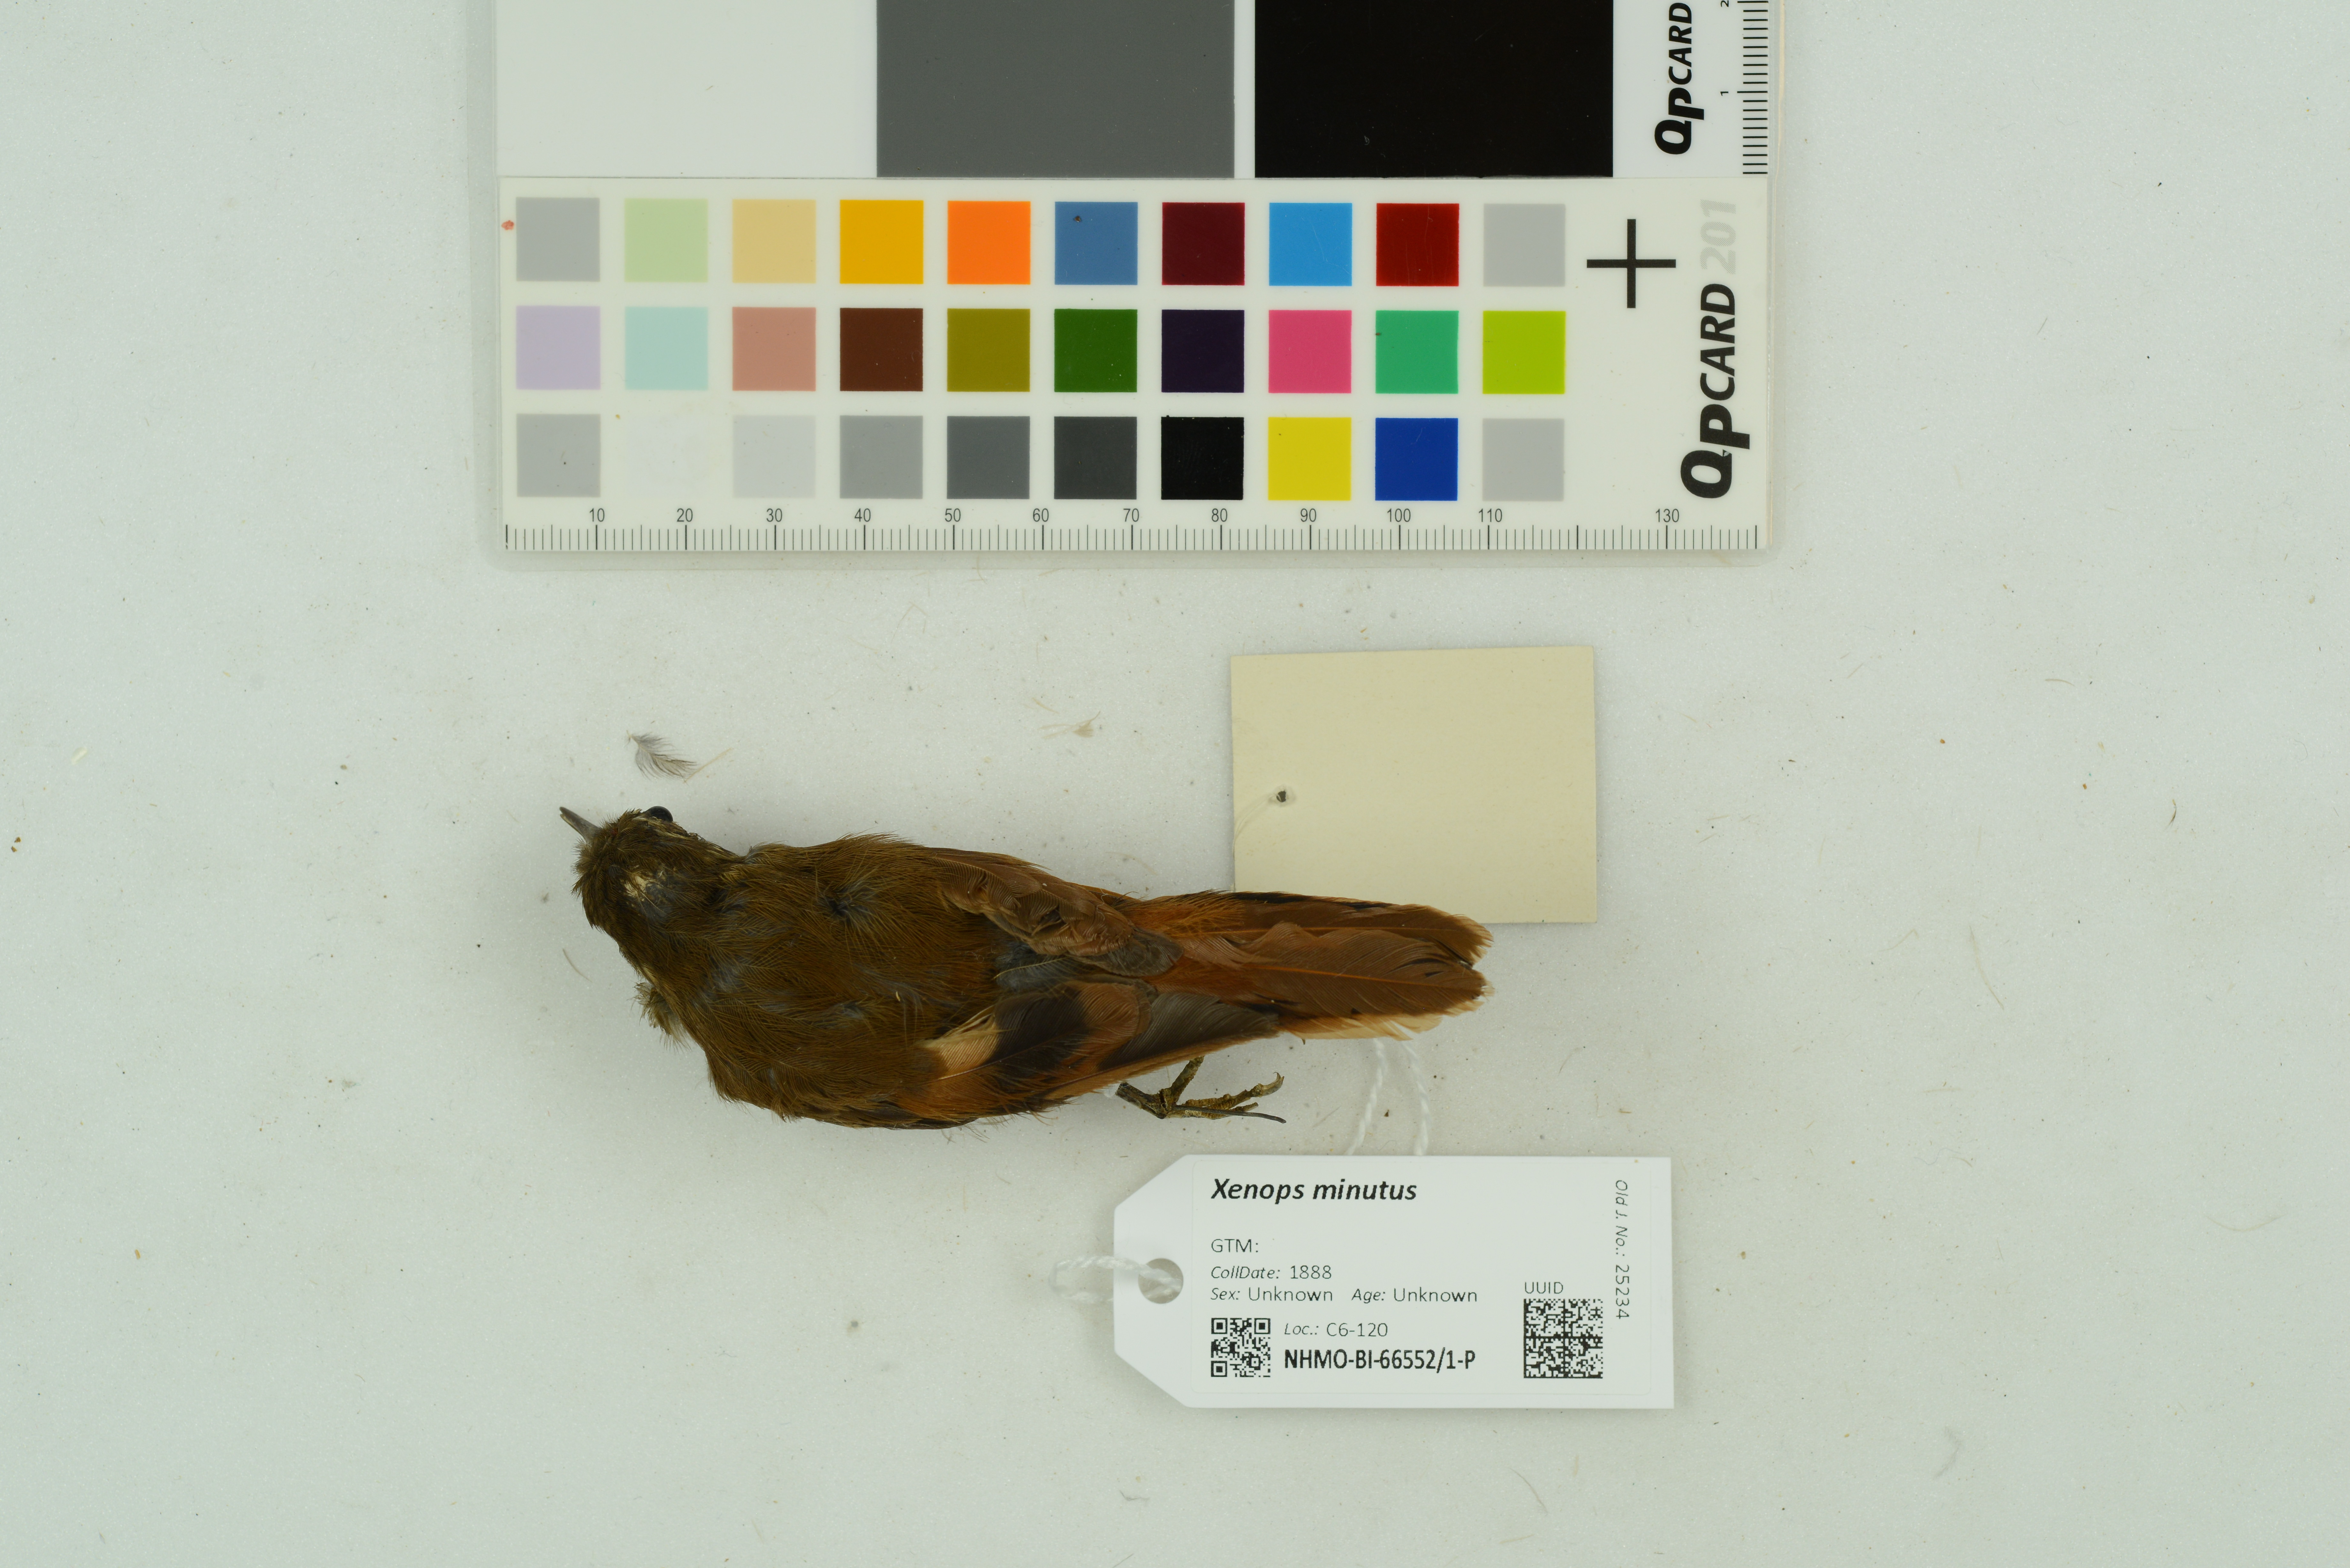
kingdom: Animalia
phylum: Chordata
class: Aves
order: Passeriformes
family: Furnariidae
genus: Xenops
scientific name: Xenops minutus
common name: Plain xenops
